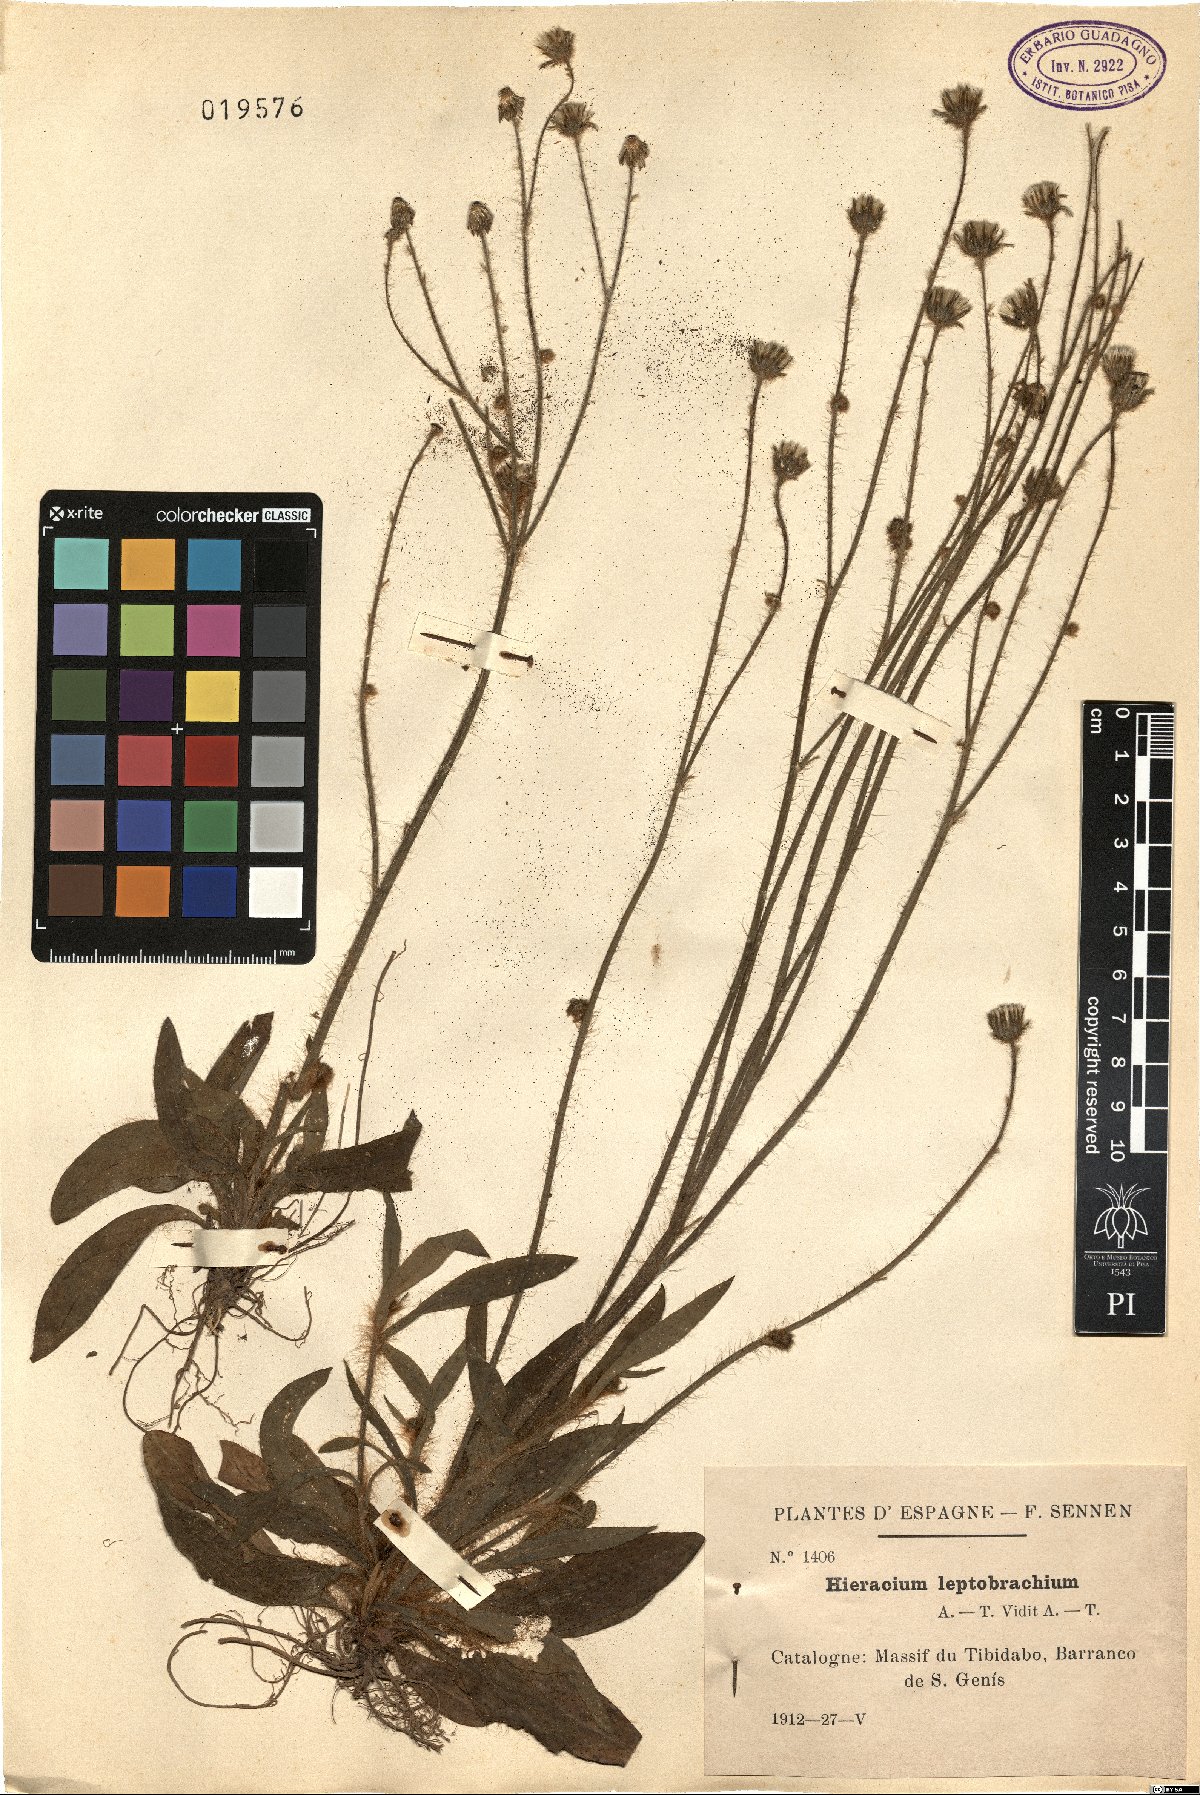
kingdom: Plantae
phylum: Tracheophyta
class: Magnoliopsida
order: Asterales
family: Asteraceae
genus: Pilosella
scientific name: Pilosella leptobrachia
